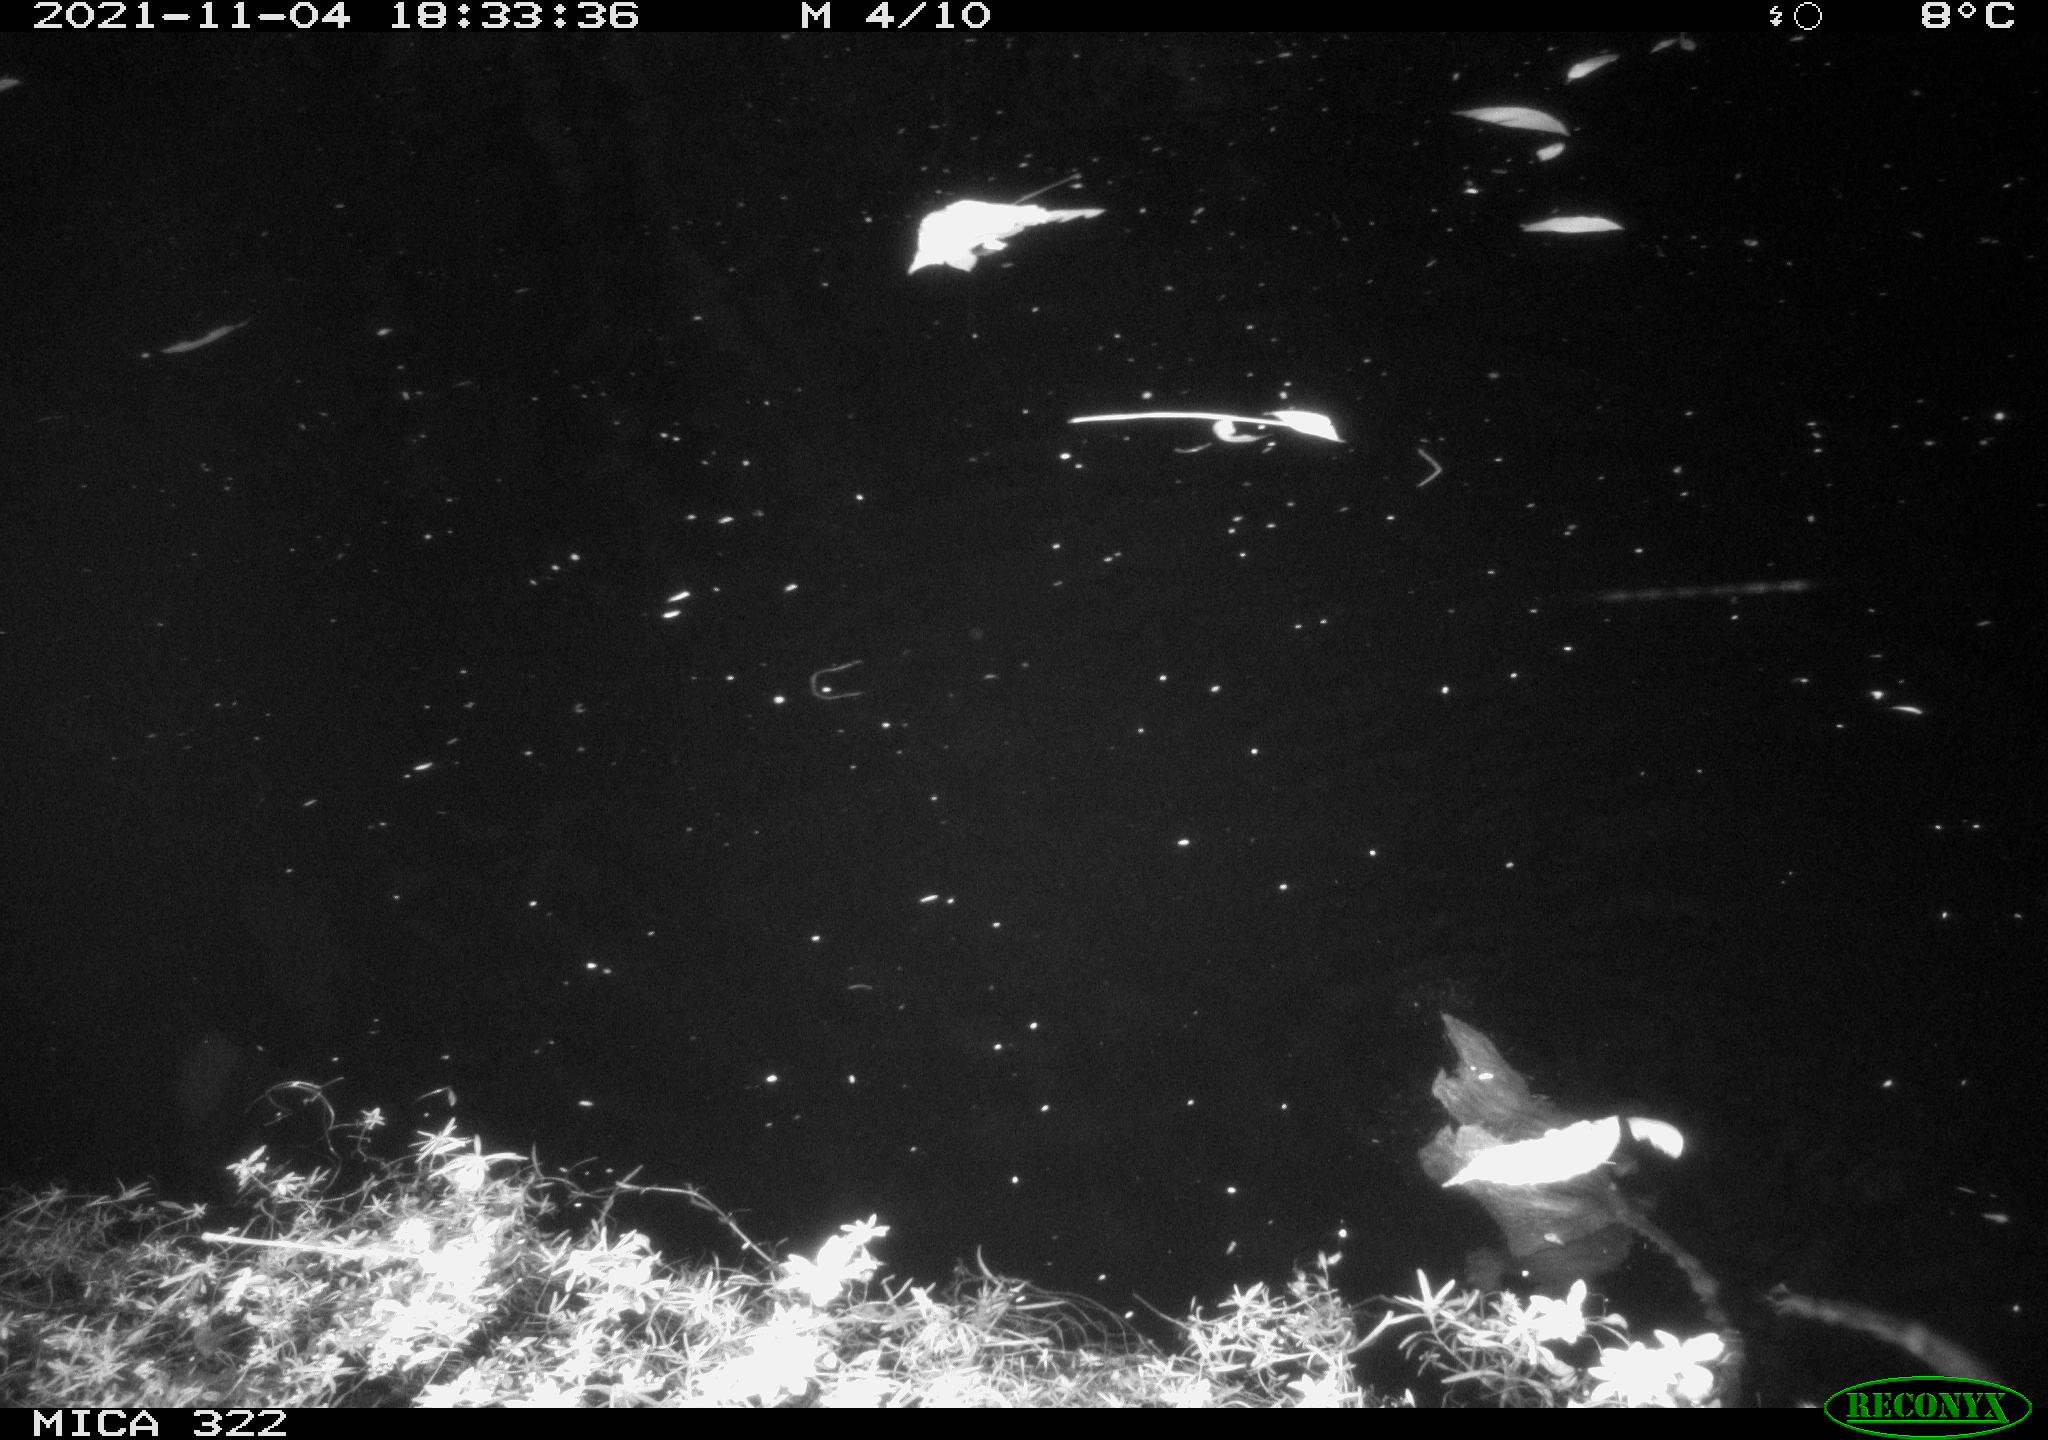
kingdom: Animalia
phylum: Chordata
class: Mammalia
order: Rodentia
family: Cricetidae
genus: Ondatra
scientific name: Ondatra zibethicus
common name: Muskrat
